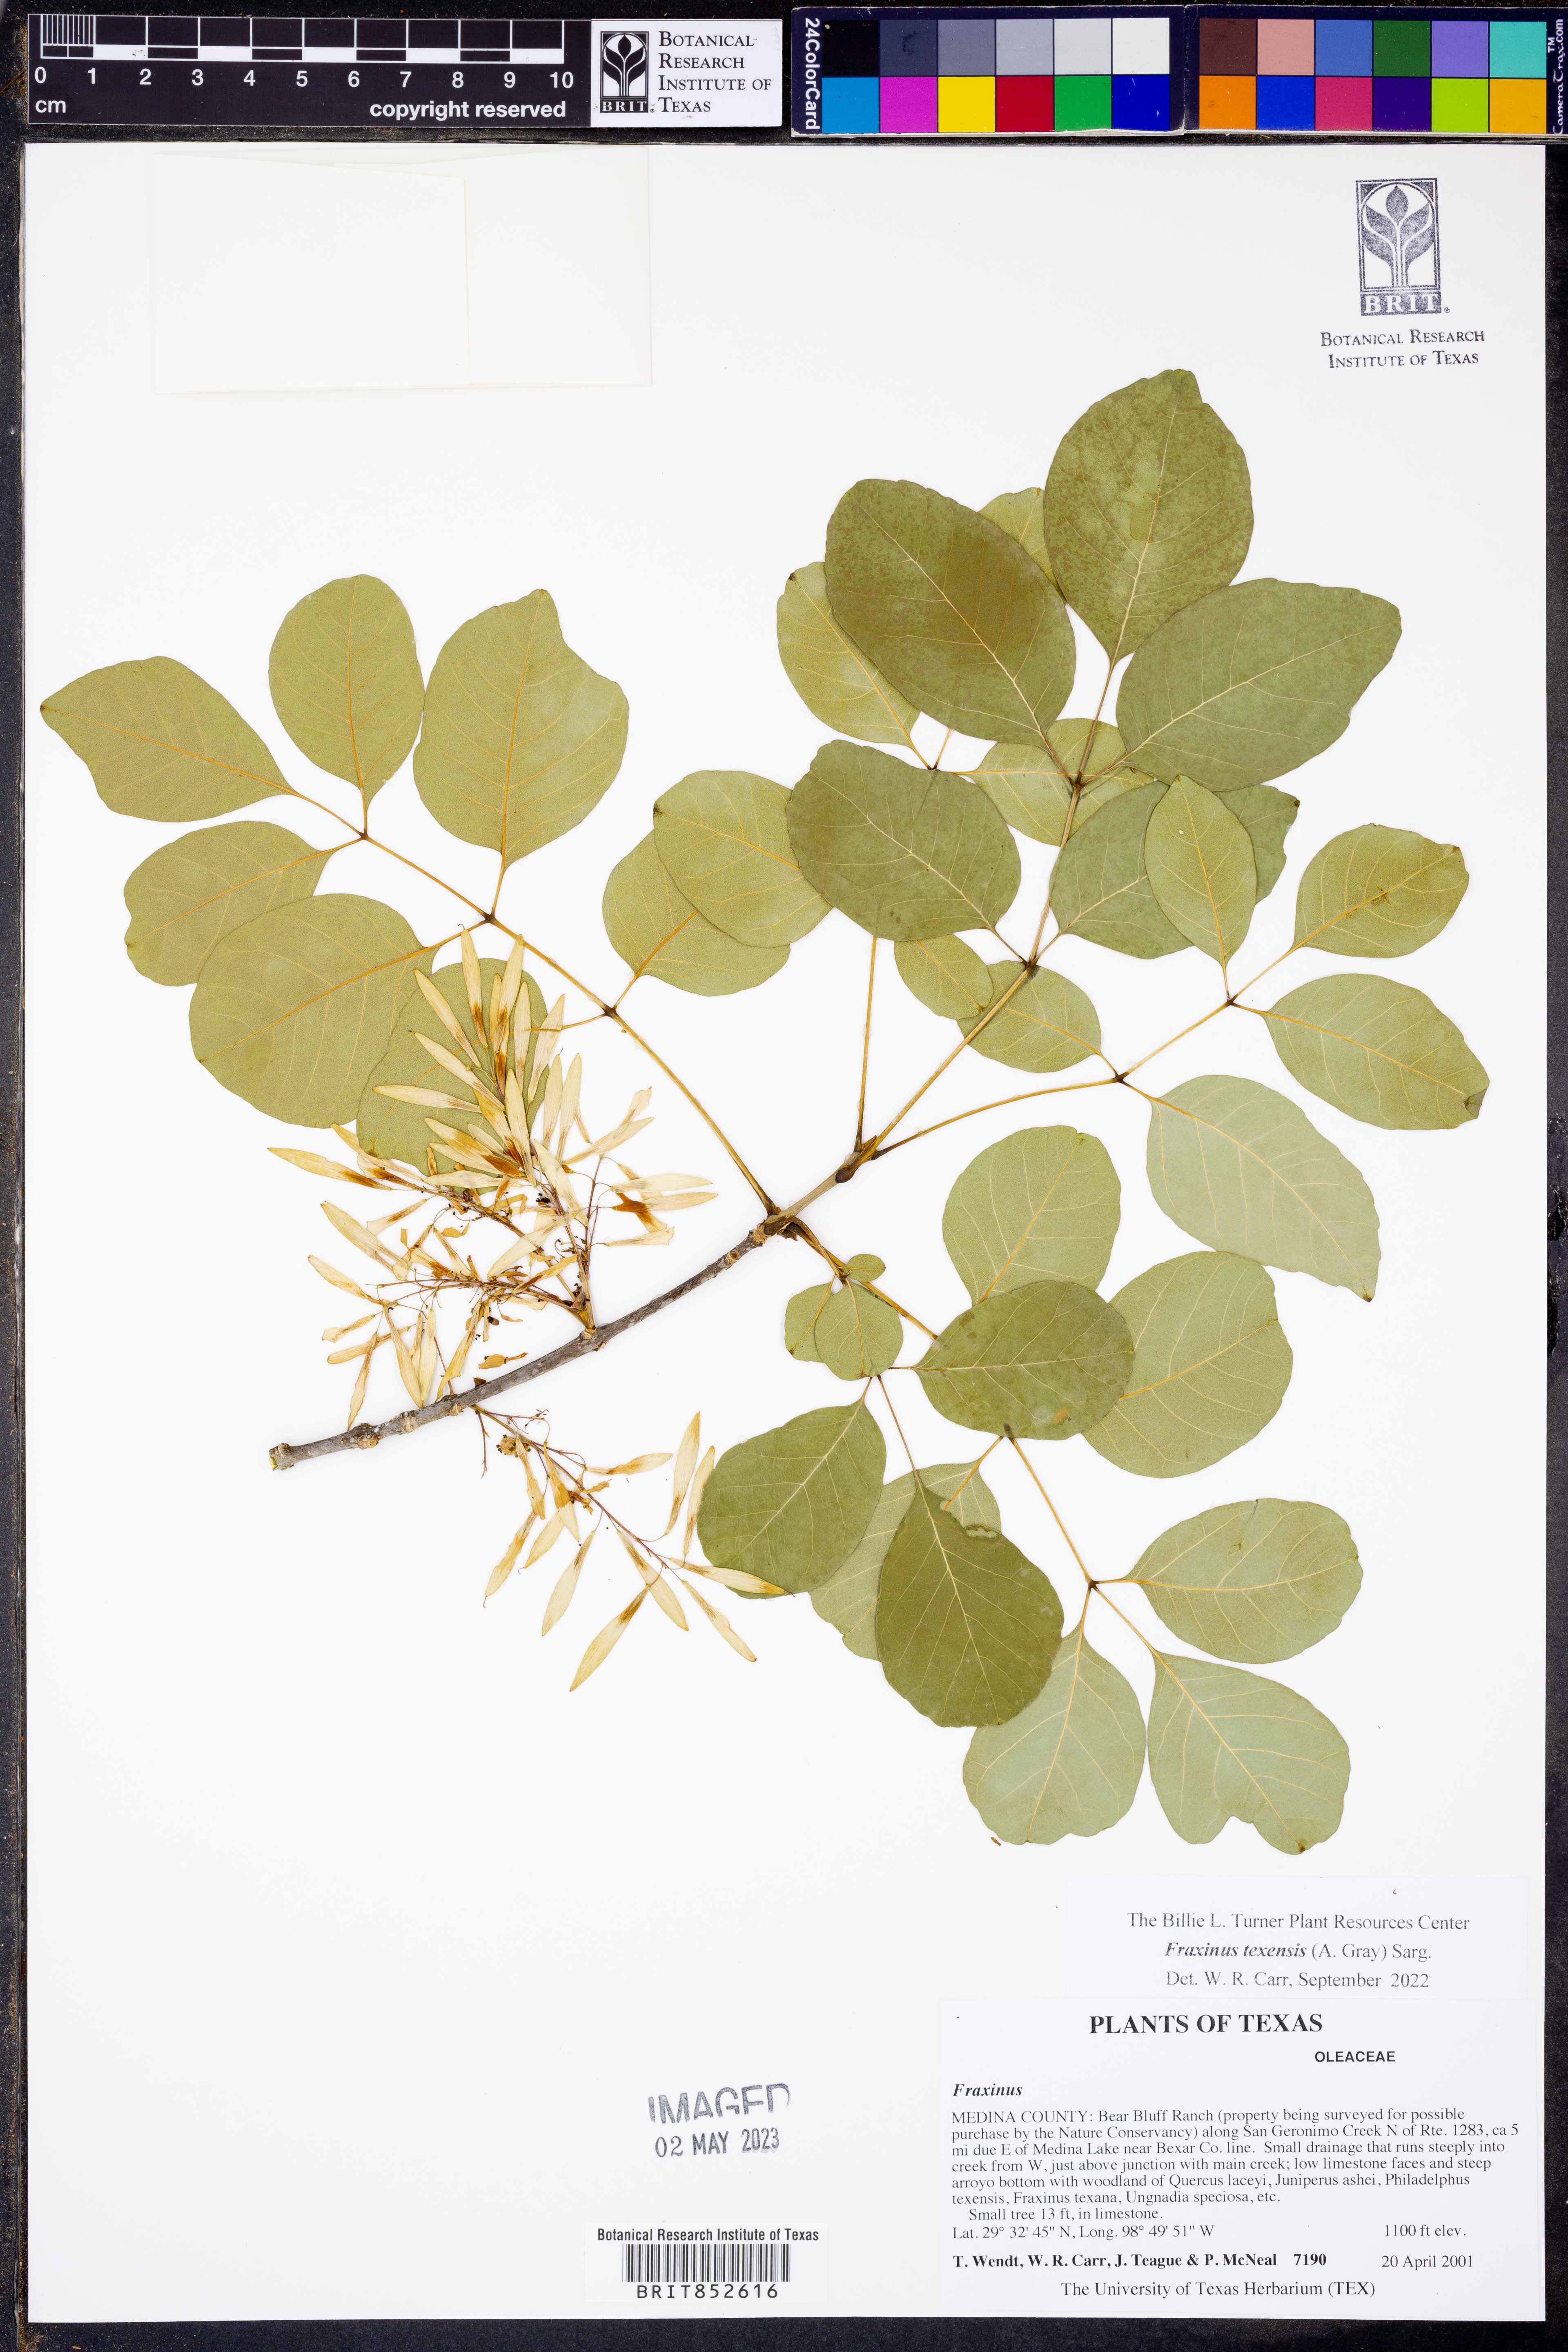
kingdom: Plantae
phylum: Tracheophyta
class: Magnoliopsida
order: Lamiales
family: Oleaceae
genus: Fraxinus
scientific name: Fraxinus albicans
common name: Texas ash
